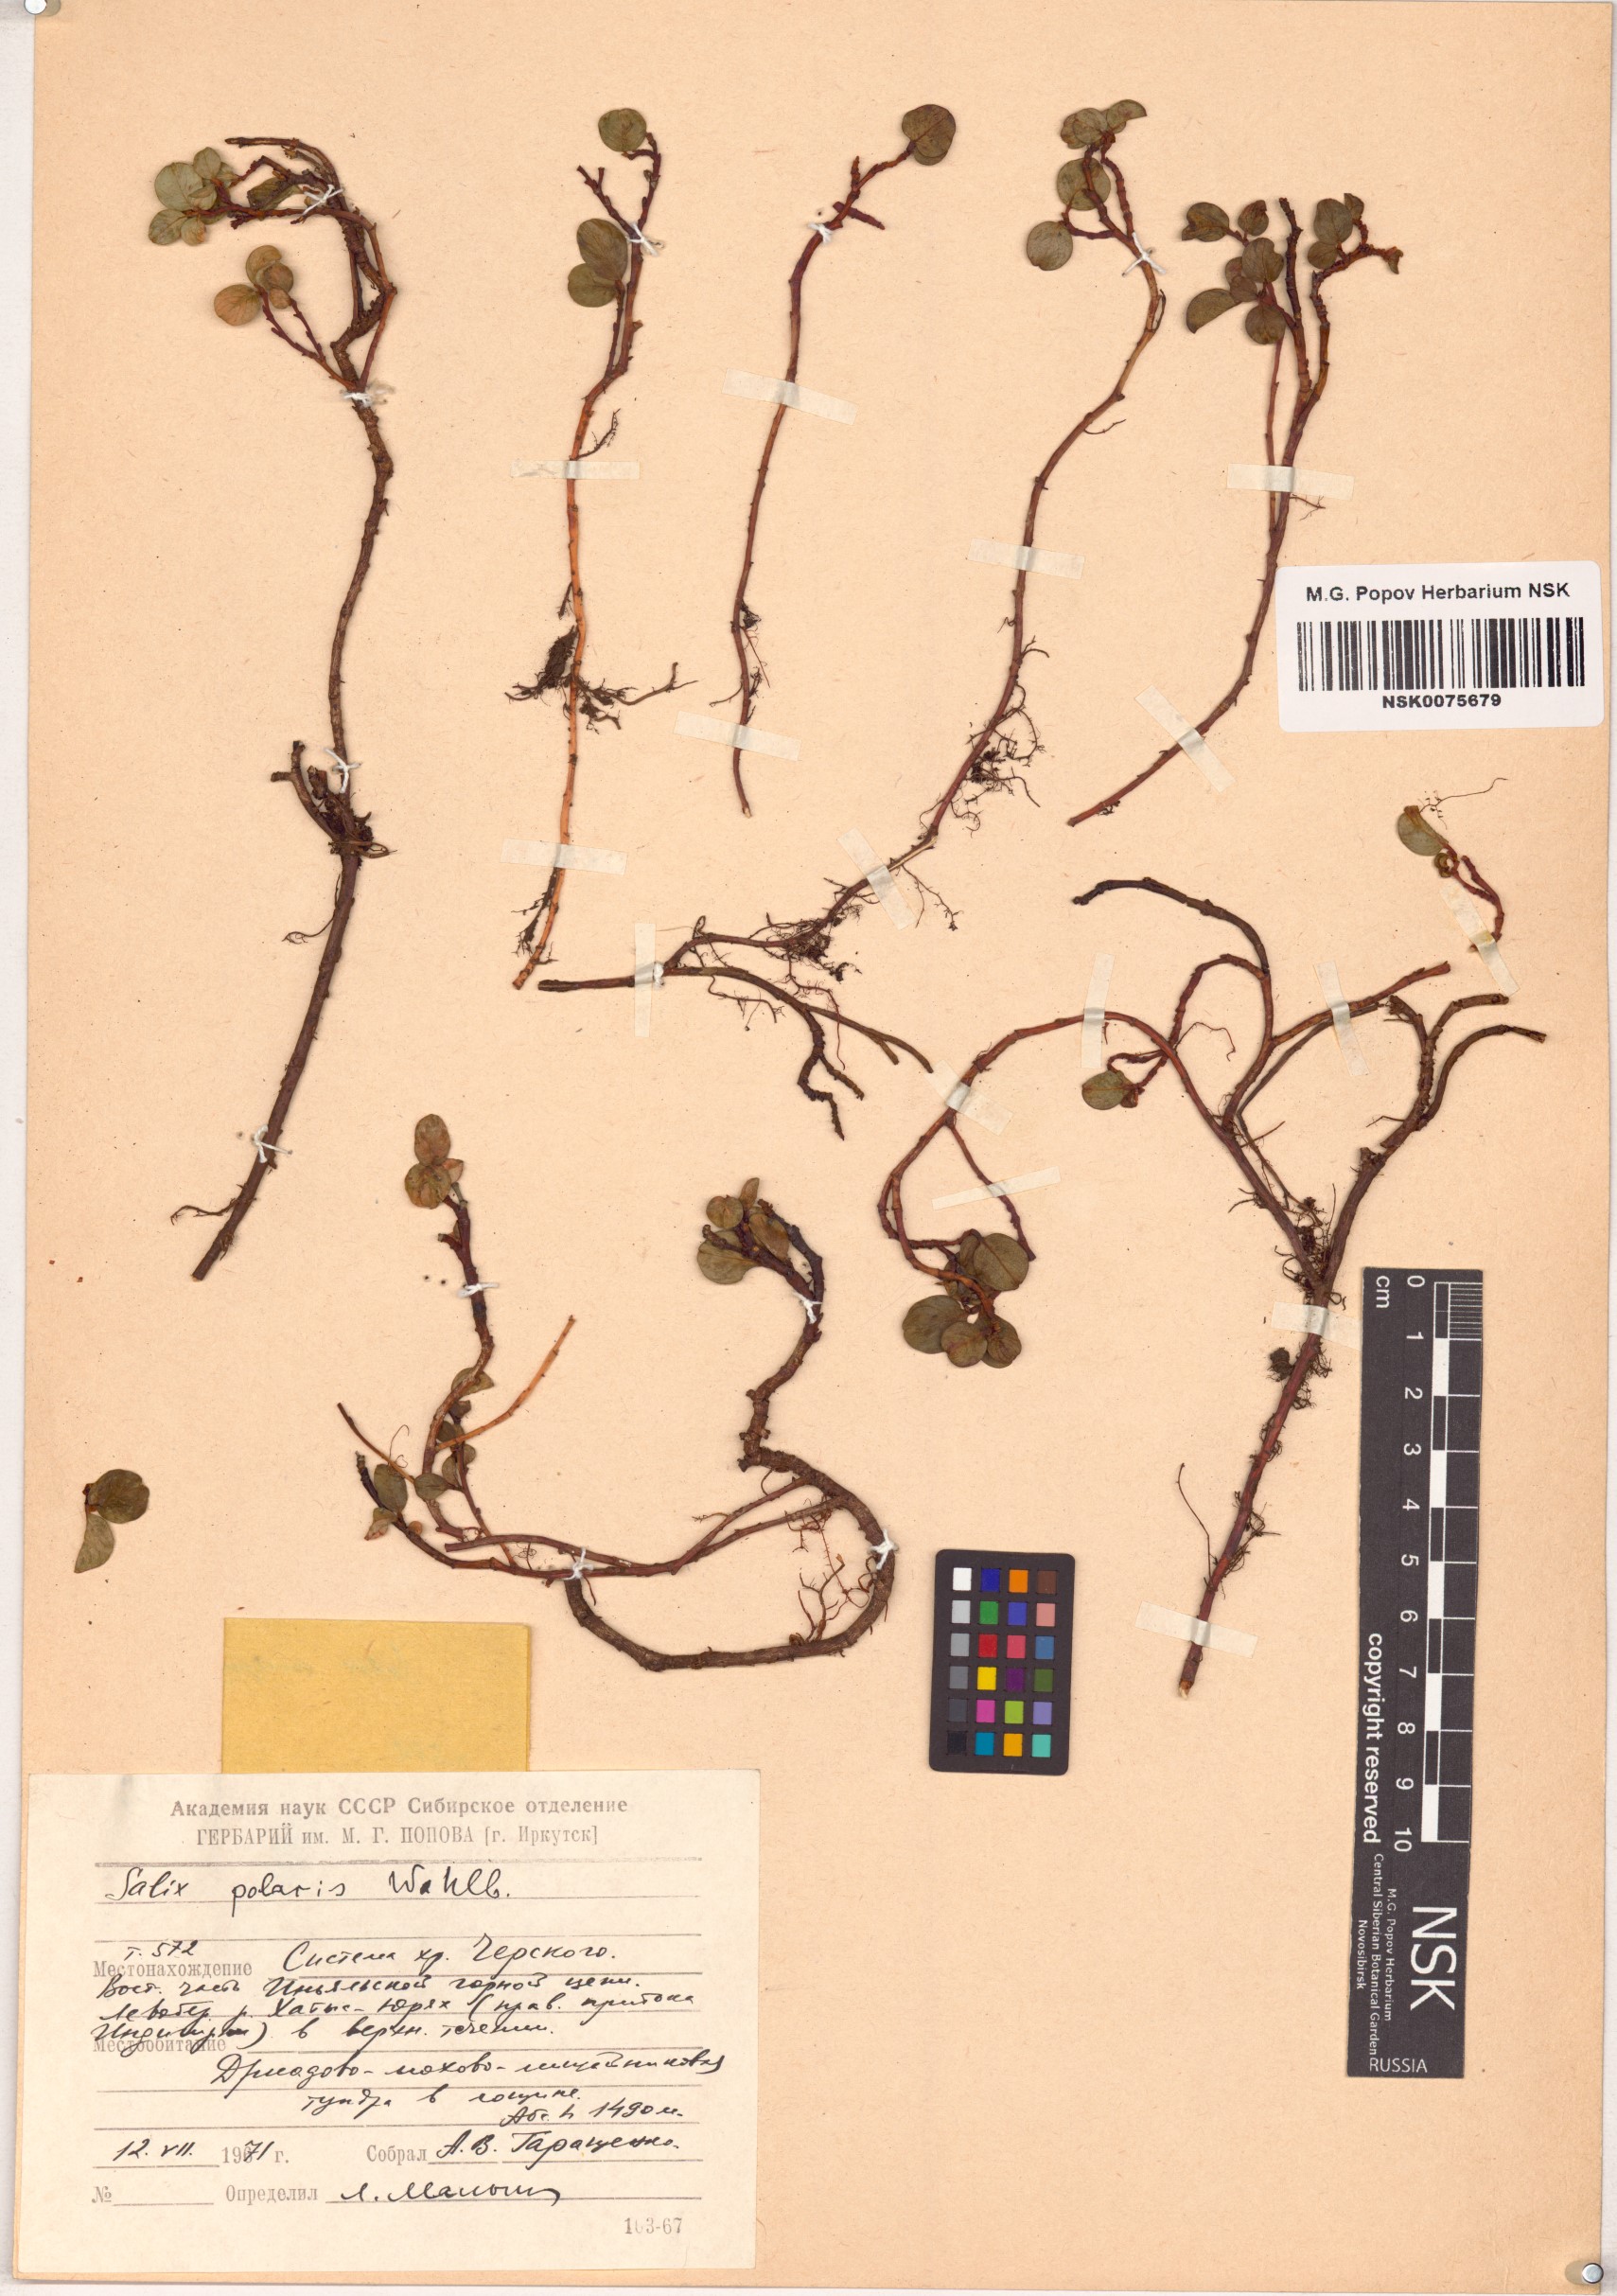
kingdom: Plantae
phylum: Tracheophyta
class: Magnoliopsida
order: Malpighiales
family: Salicaceae
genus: Salix
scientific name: Salix polaris
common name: Polar willow
